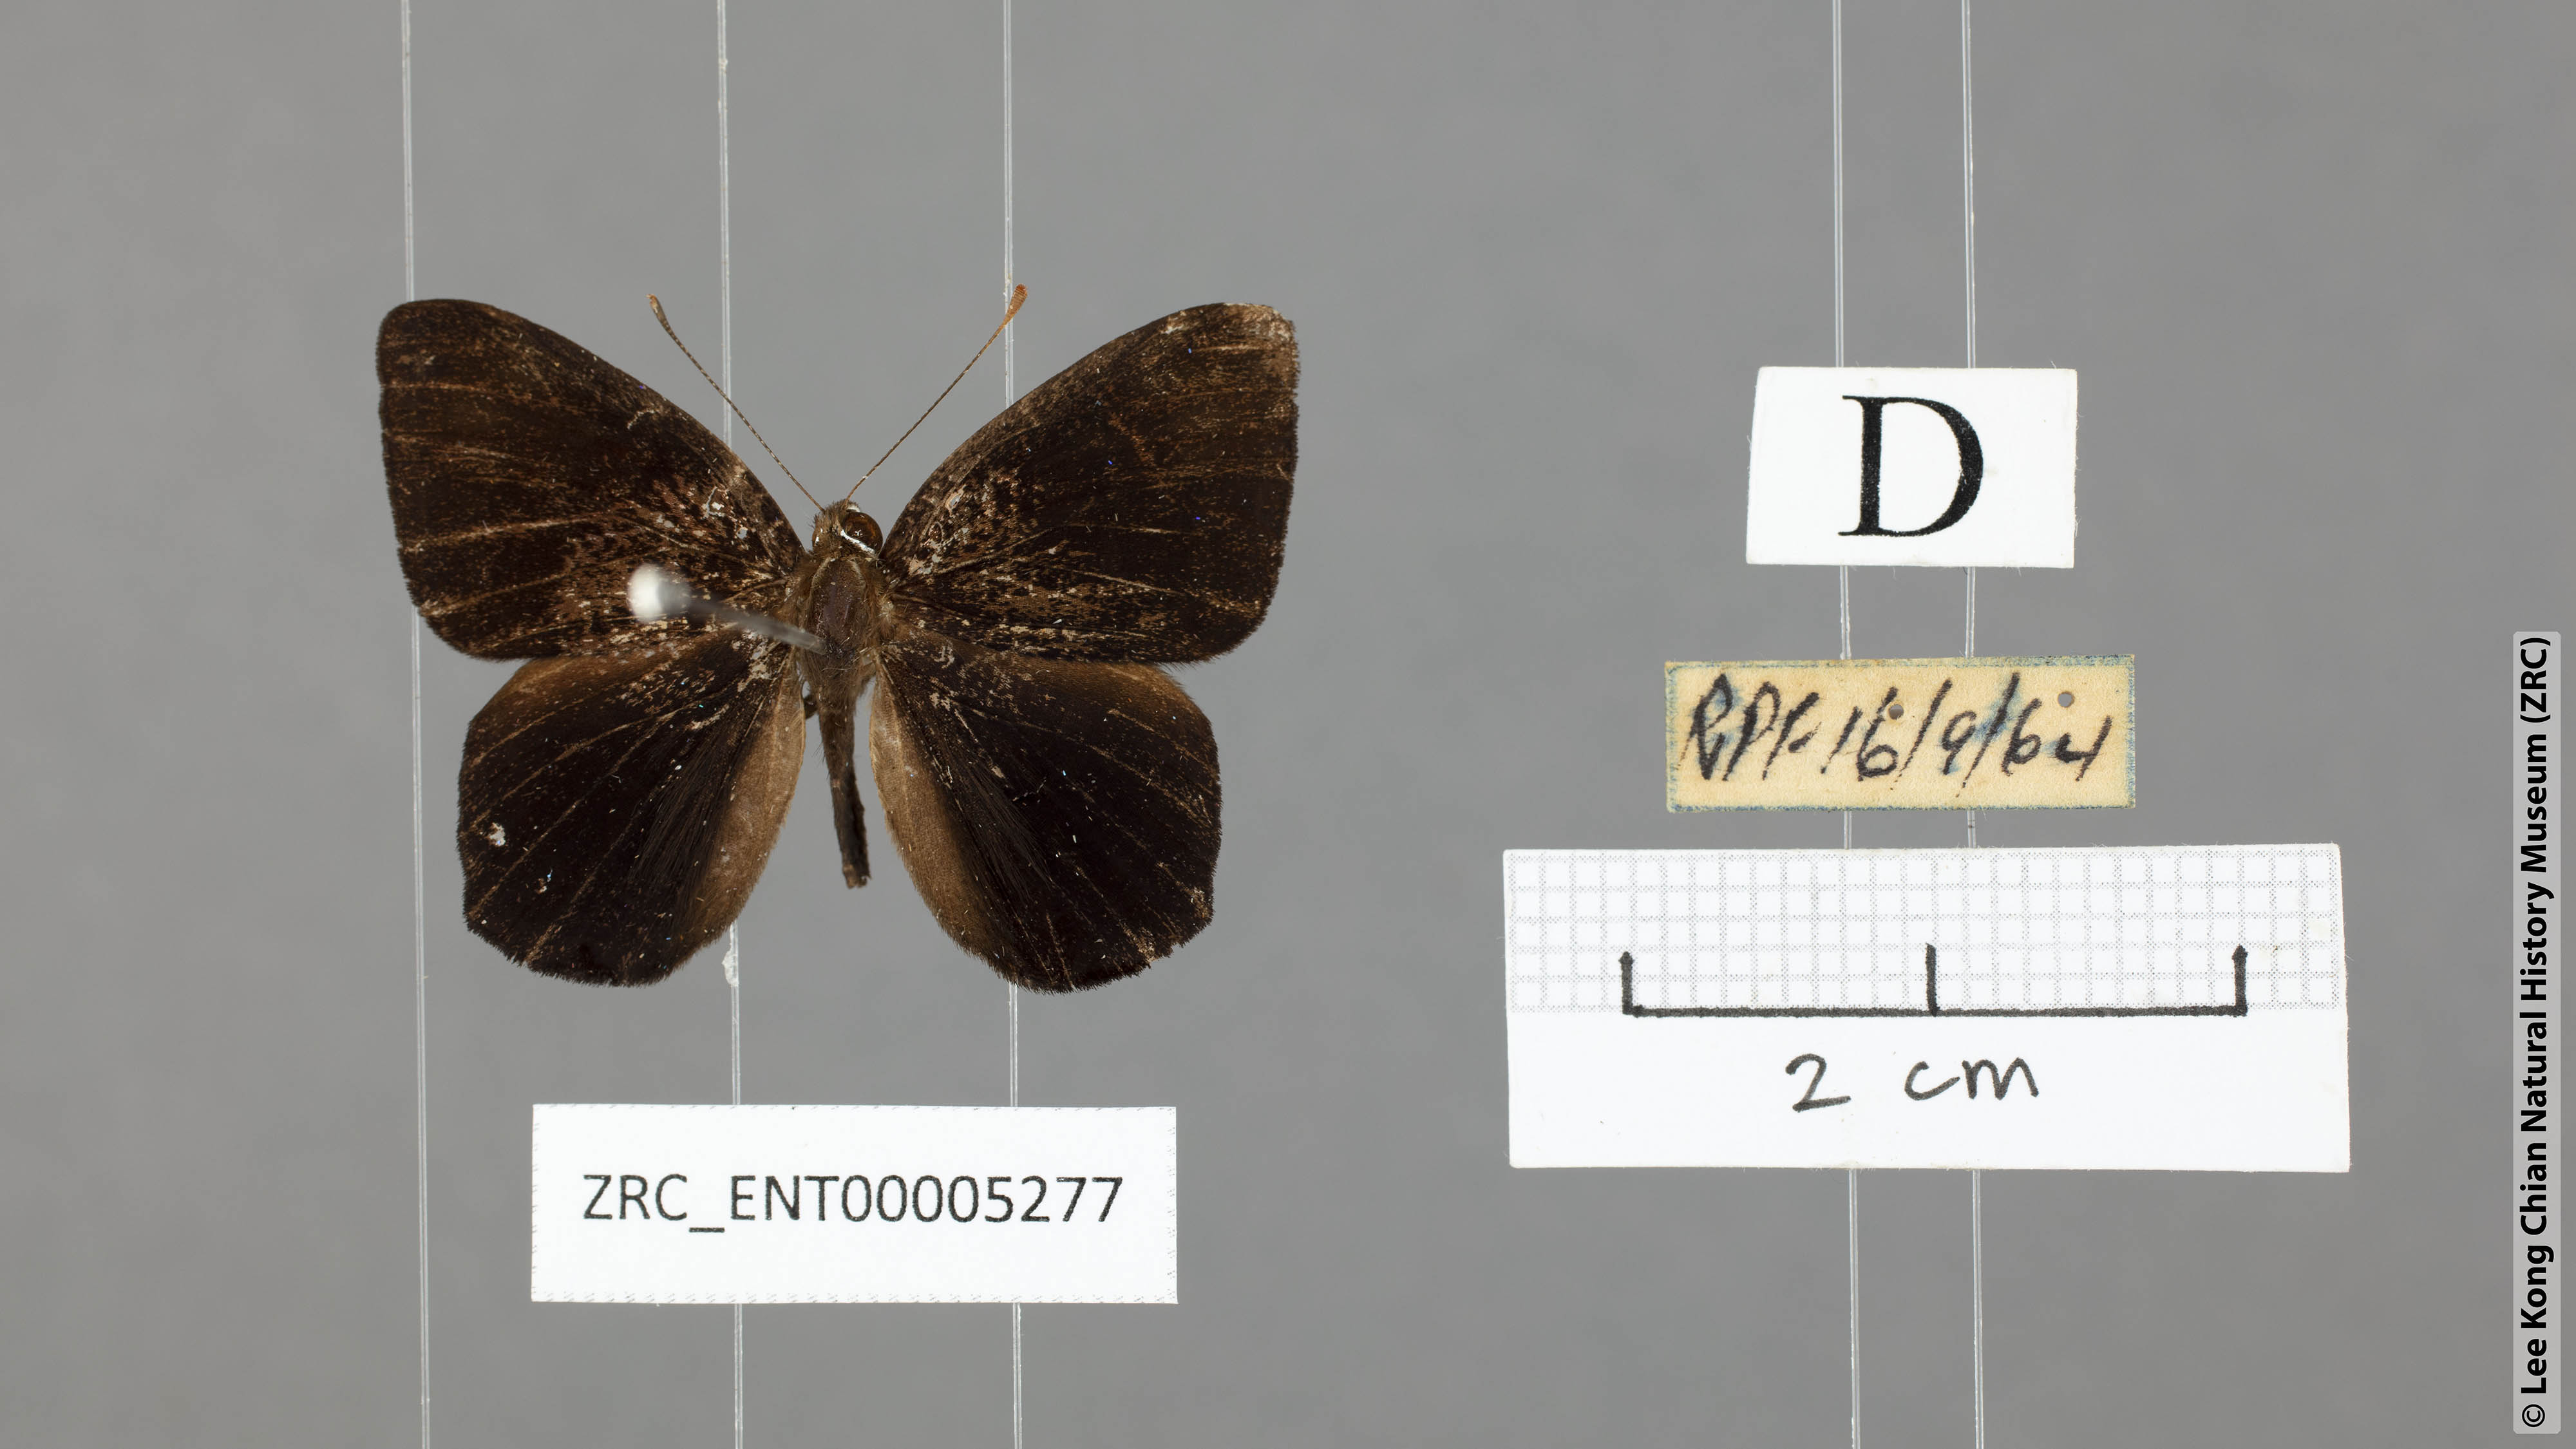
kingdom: Animalia
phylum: Arthropoda
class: Insecta
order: Lepidoptera
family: Erebidae
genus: Dysschema
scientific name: Dysschema
